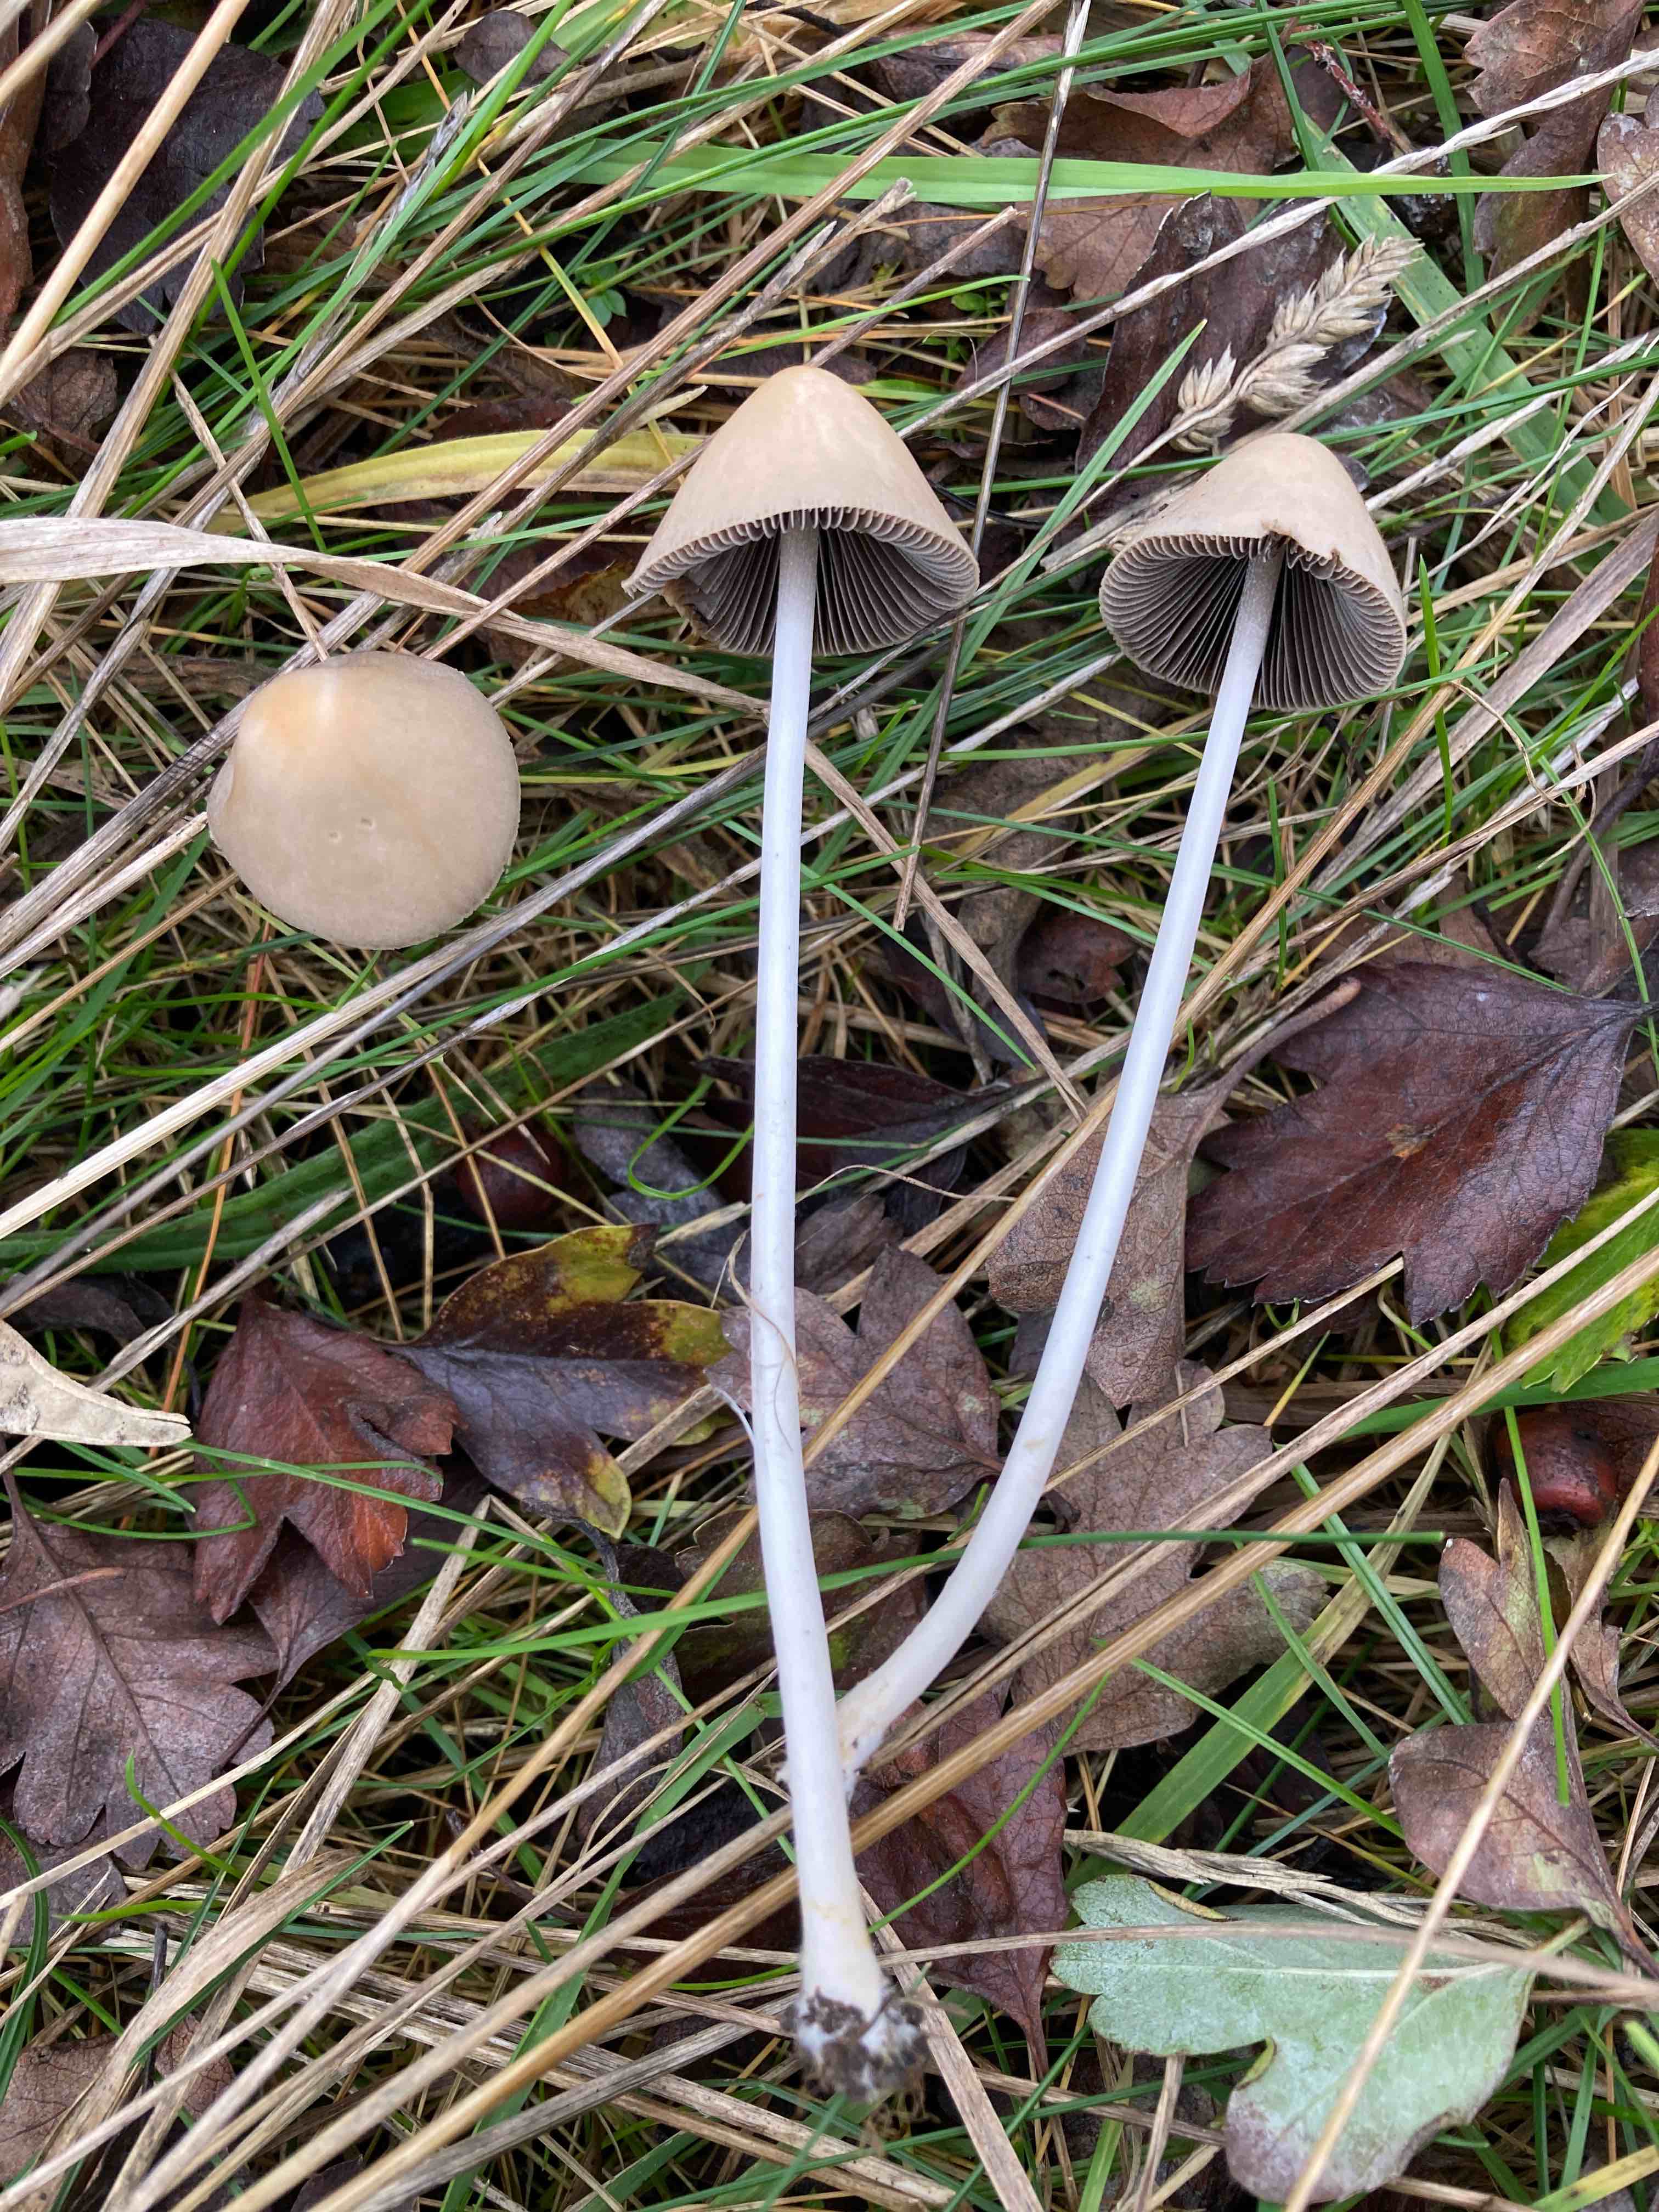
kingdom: Fungi
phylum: Basidiomycota
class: Agaricomycetes
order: Agaricales
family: Psathyrellaceae
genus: Parasola
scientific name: Parasola conopilea
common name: kegle-hjulhat
